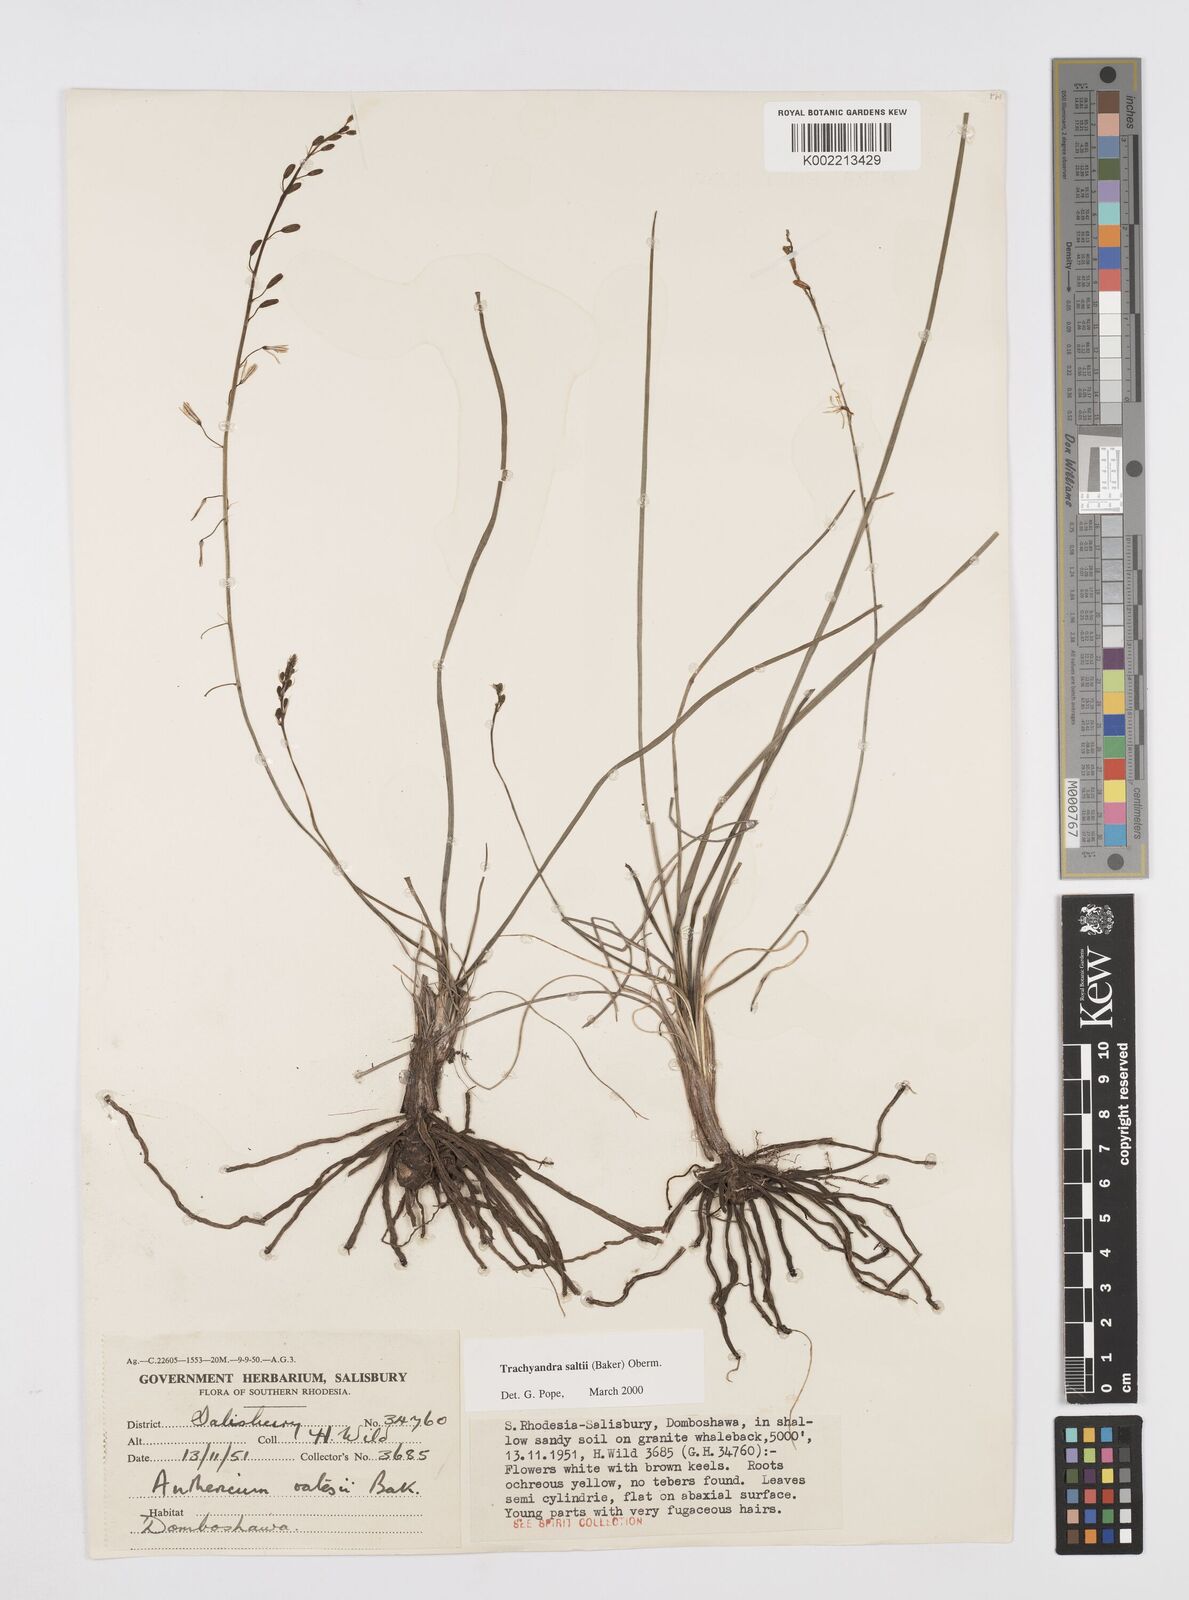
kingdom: Plantae
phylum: Tracheophyta
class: Liliopsida
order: Asparagales
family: Asphodelaceae
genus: Trachyandra
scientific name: Trachyandra saltii
